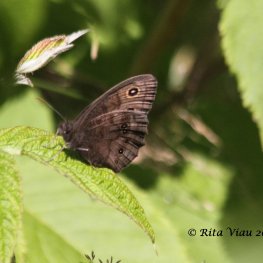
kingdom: Animalia
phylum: Arthropoda
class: Insecta
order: Lepidoptera
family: Nymphalidae
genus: Cercyonis
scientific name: Cercyonis pegala
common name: Common Wood-Nymph
